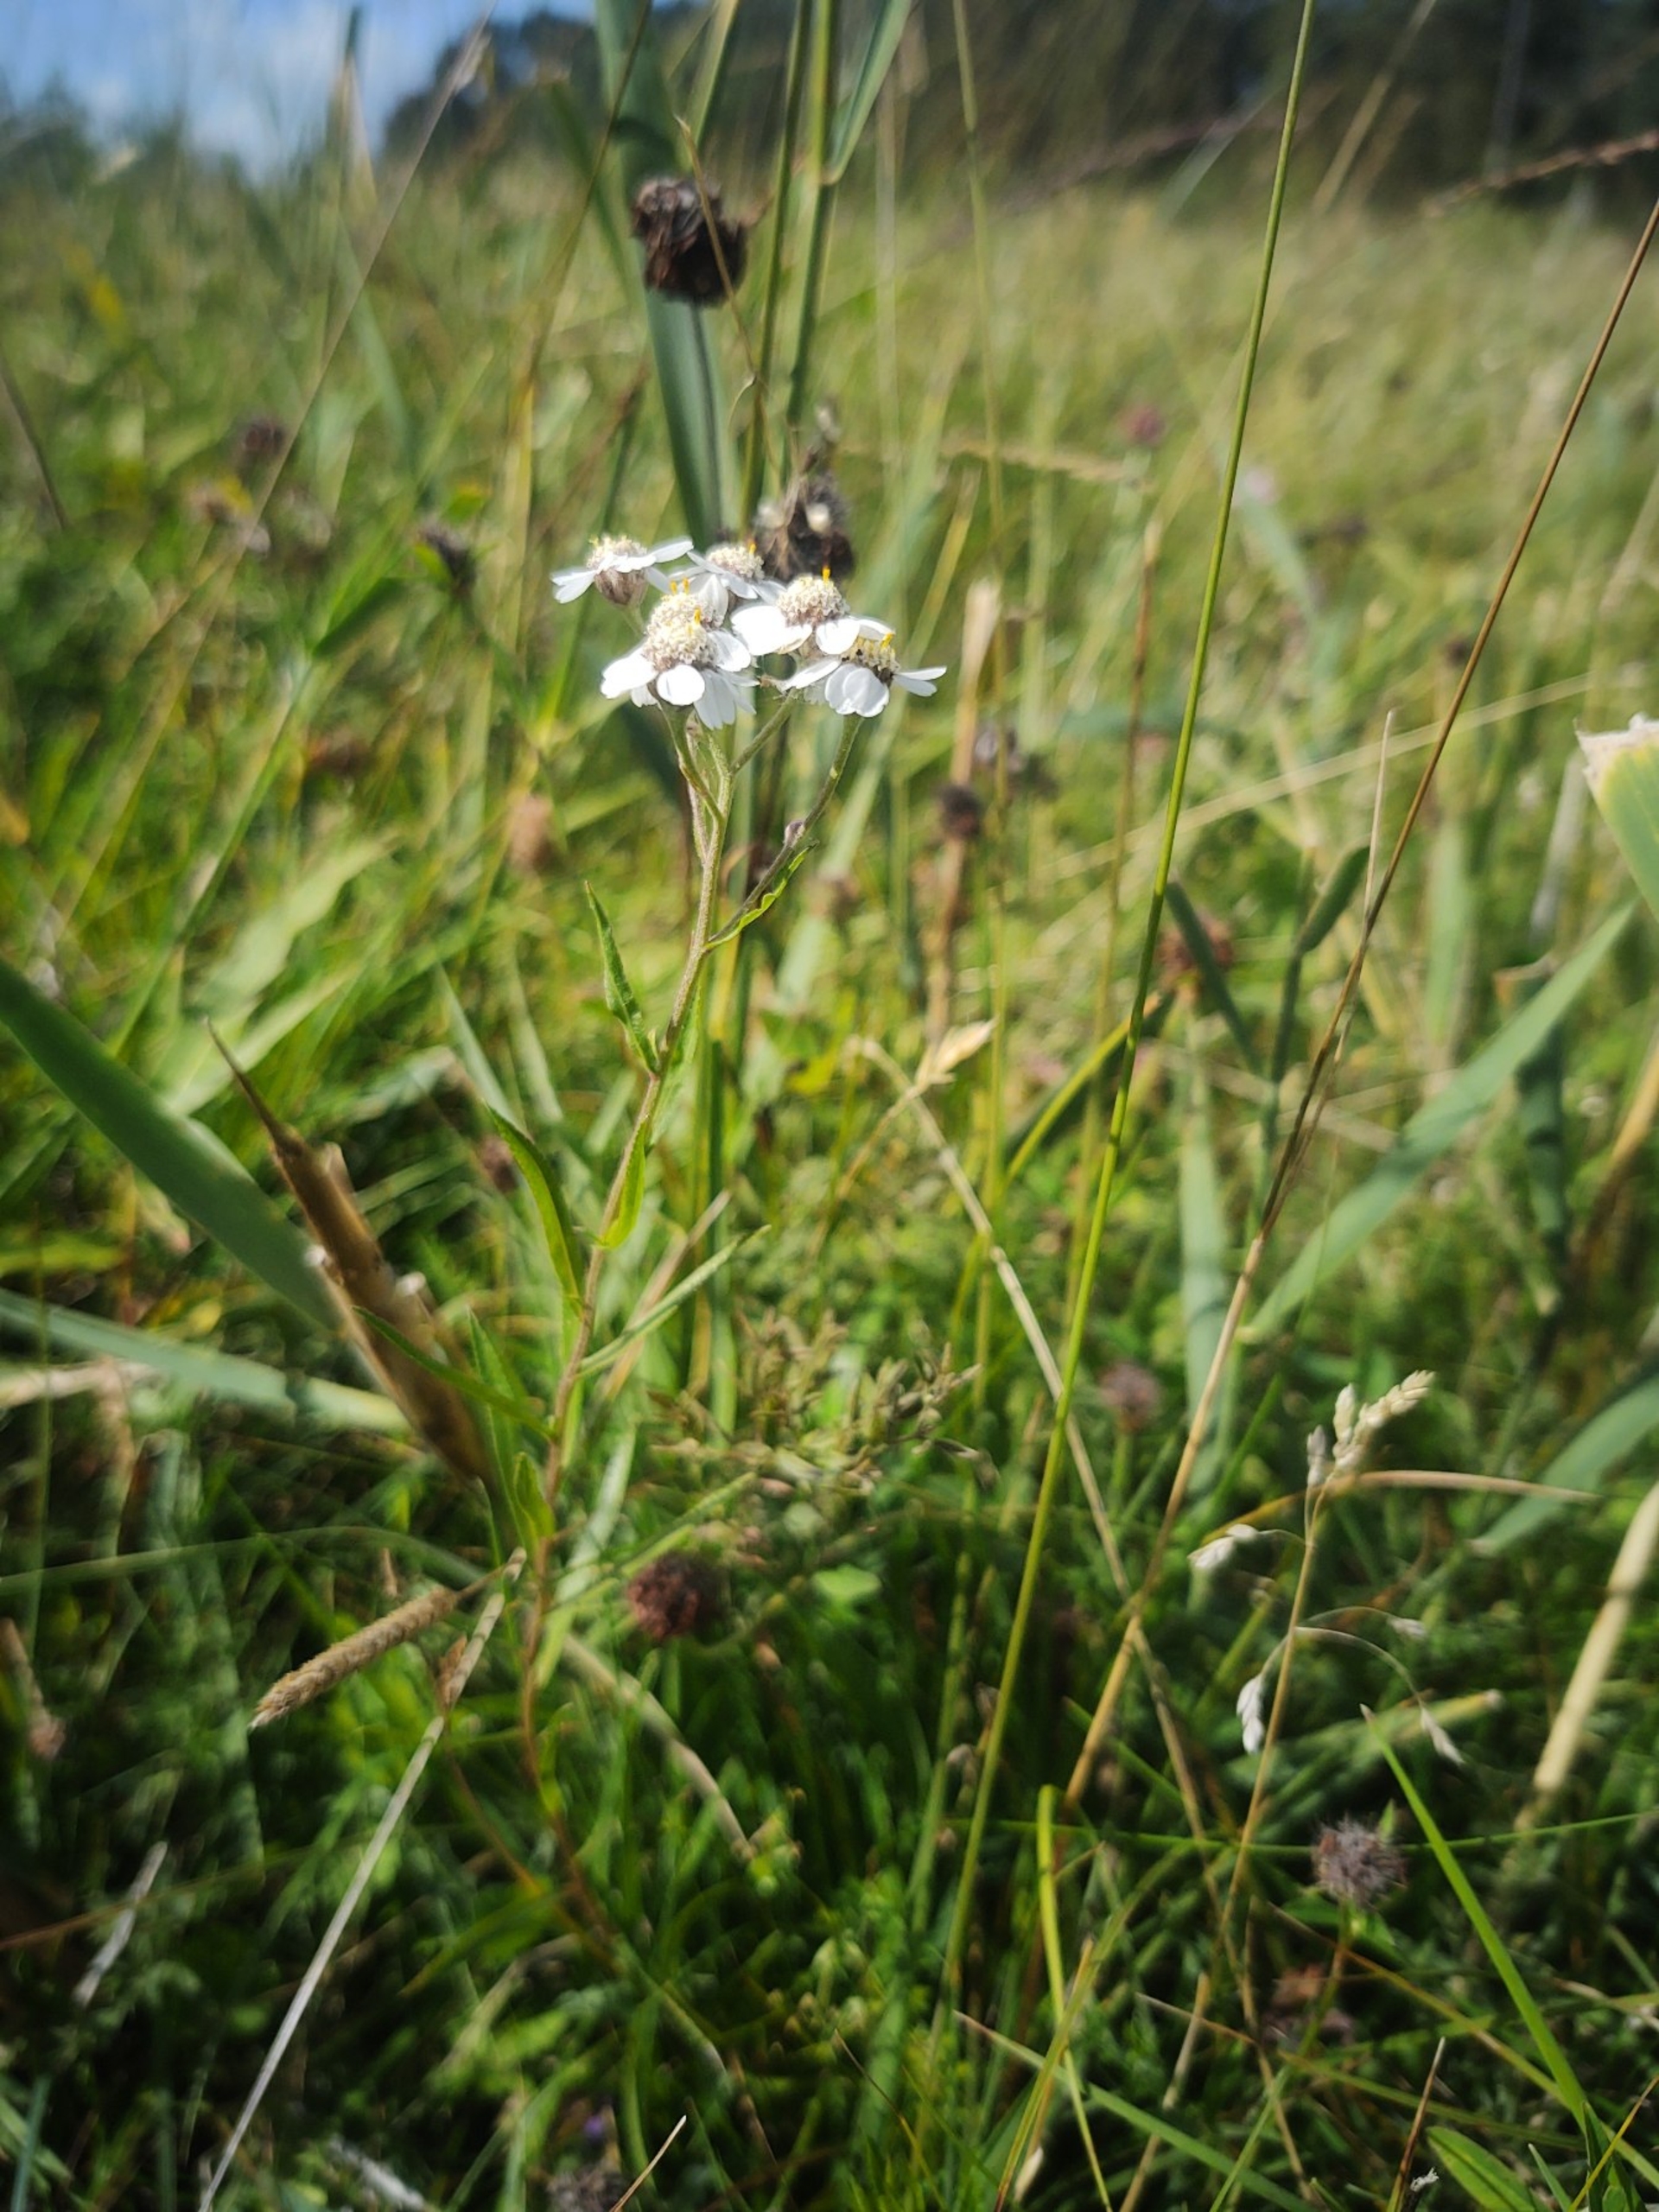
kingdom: Plantae
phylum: Tracheophyta
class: Magnoliopsida
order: Asterales
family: Asteraceae
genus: Achillea
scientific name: Achillea ptarmica
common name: Nyse-røllike
